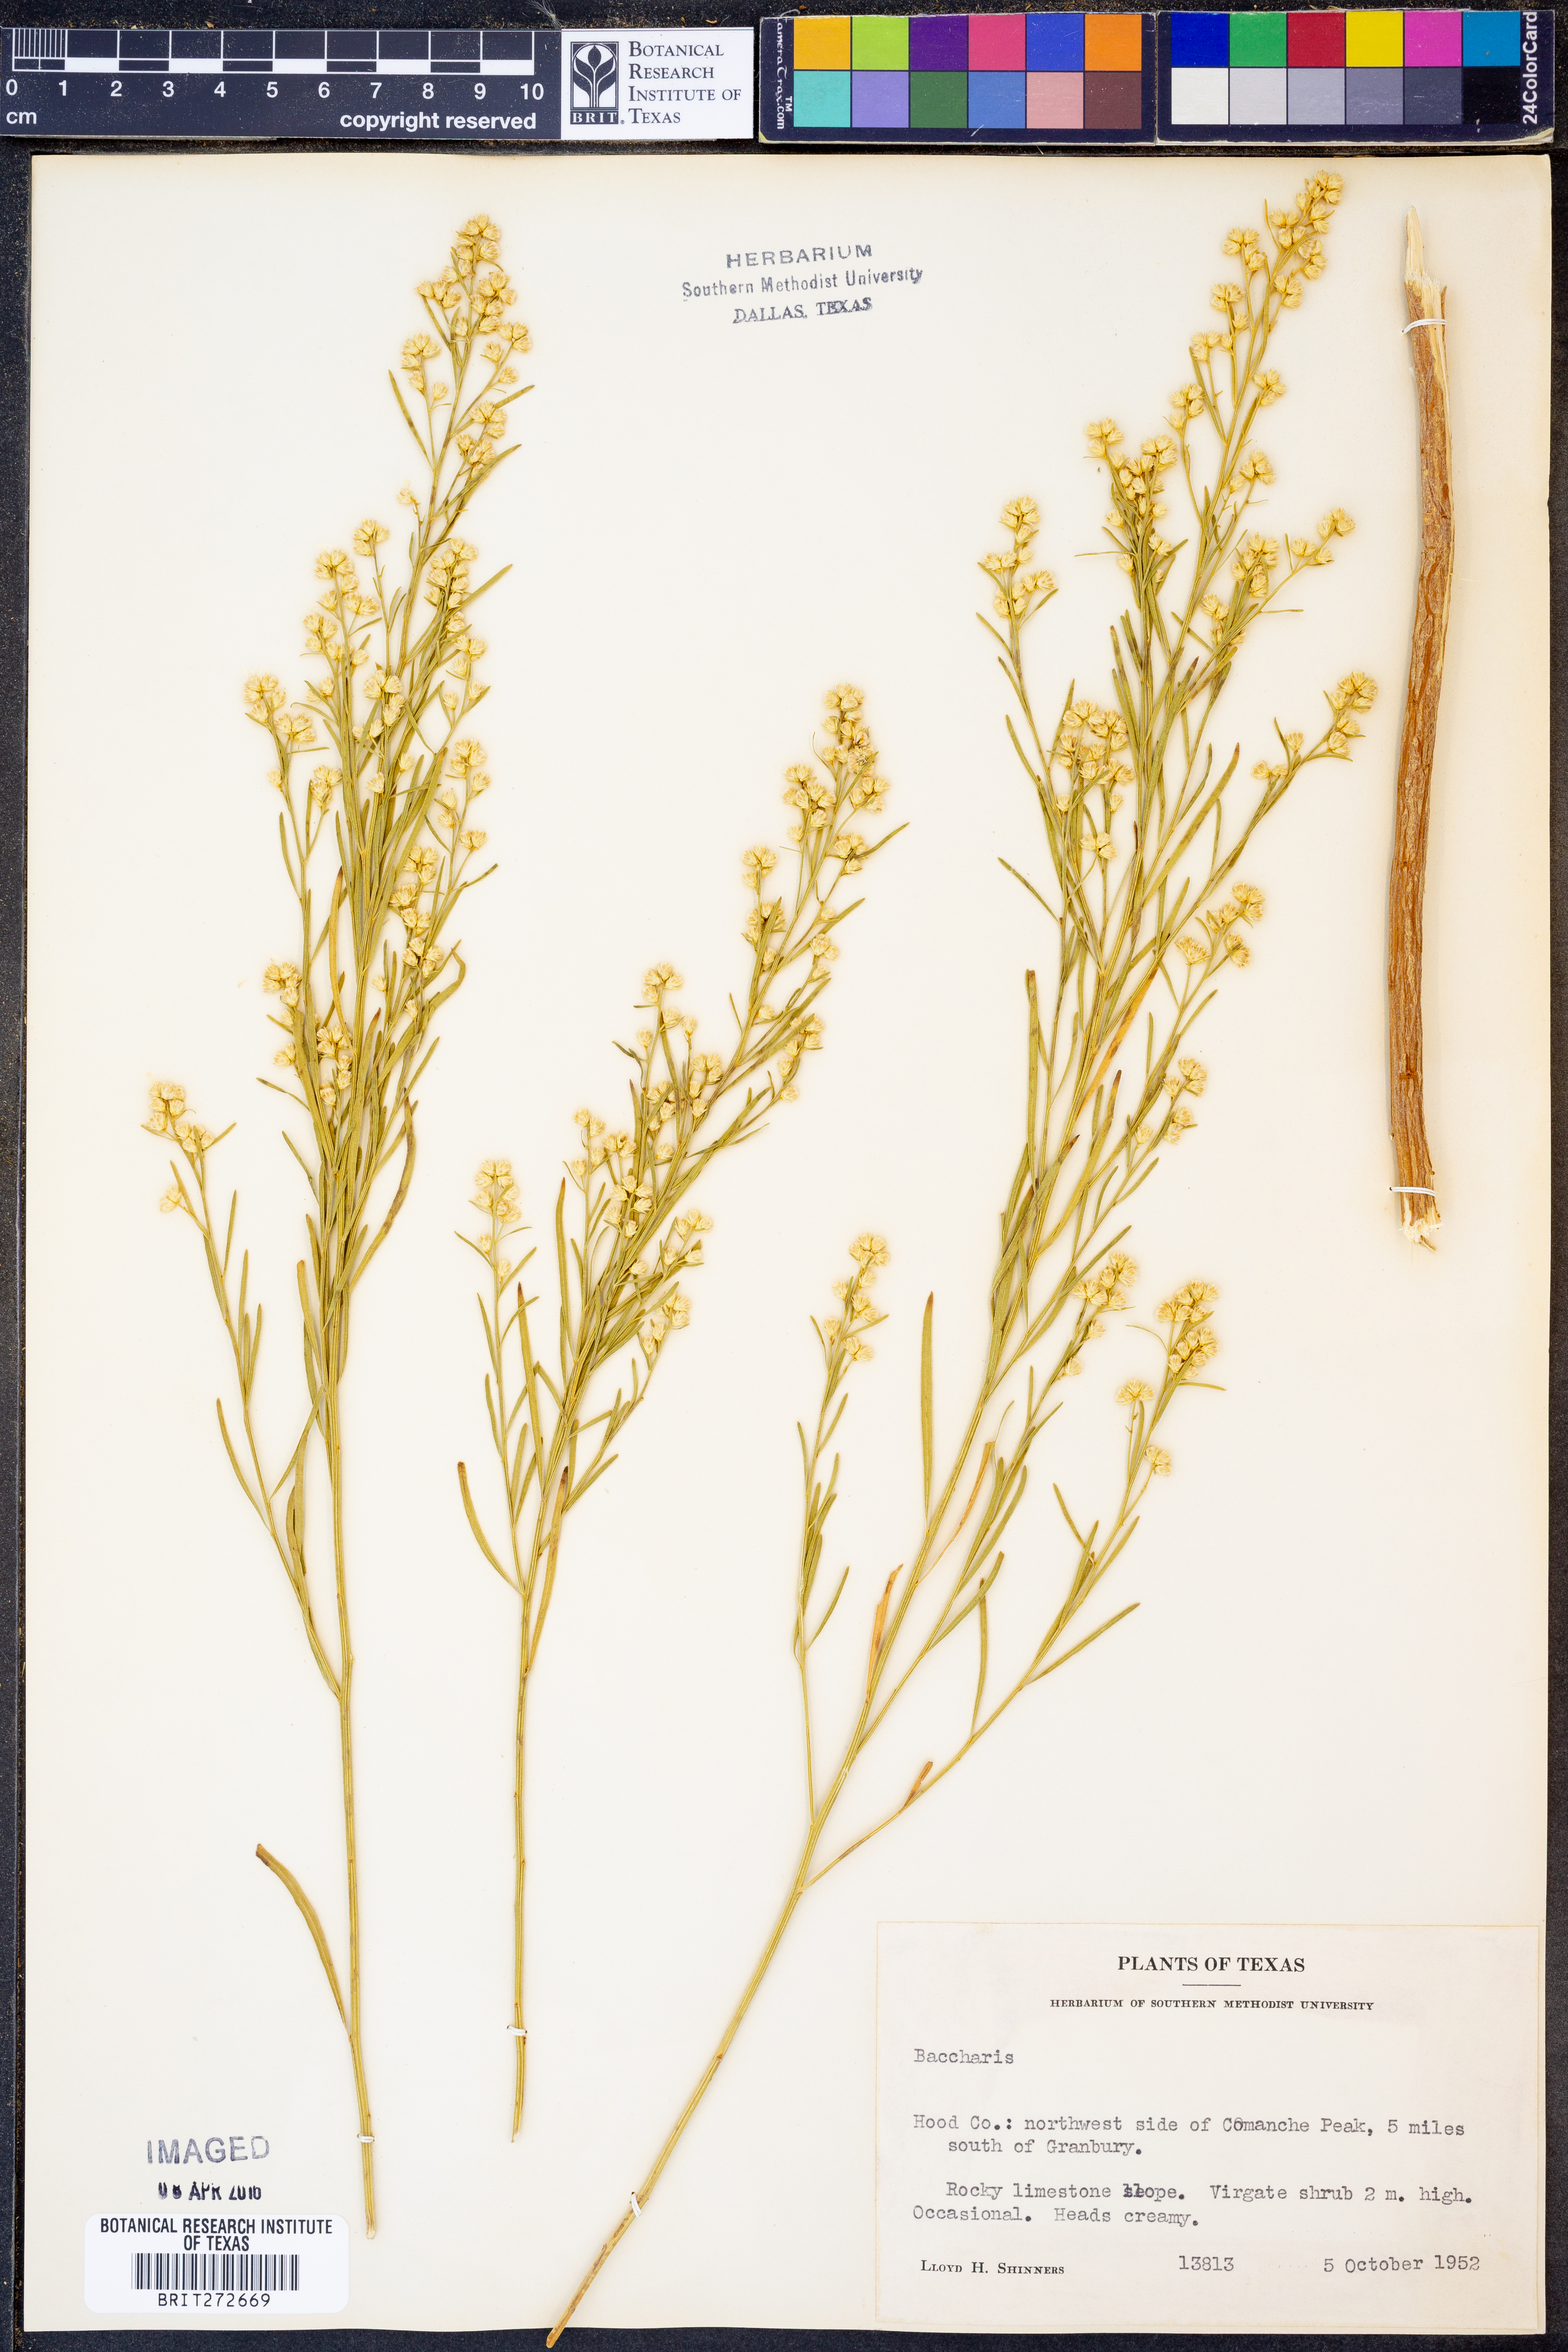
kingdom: Plantae
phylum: Tracheophyta
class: Magnoliopsida
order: Asterales
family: Asteraceae
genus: Baccharis
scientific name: Baccharis
